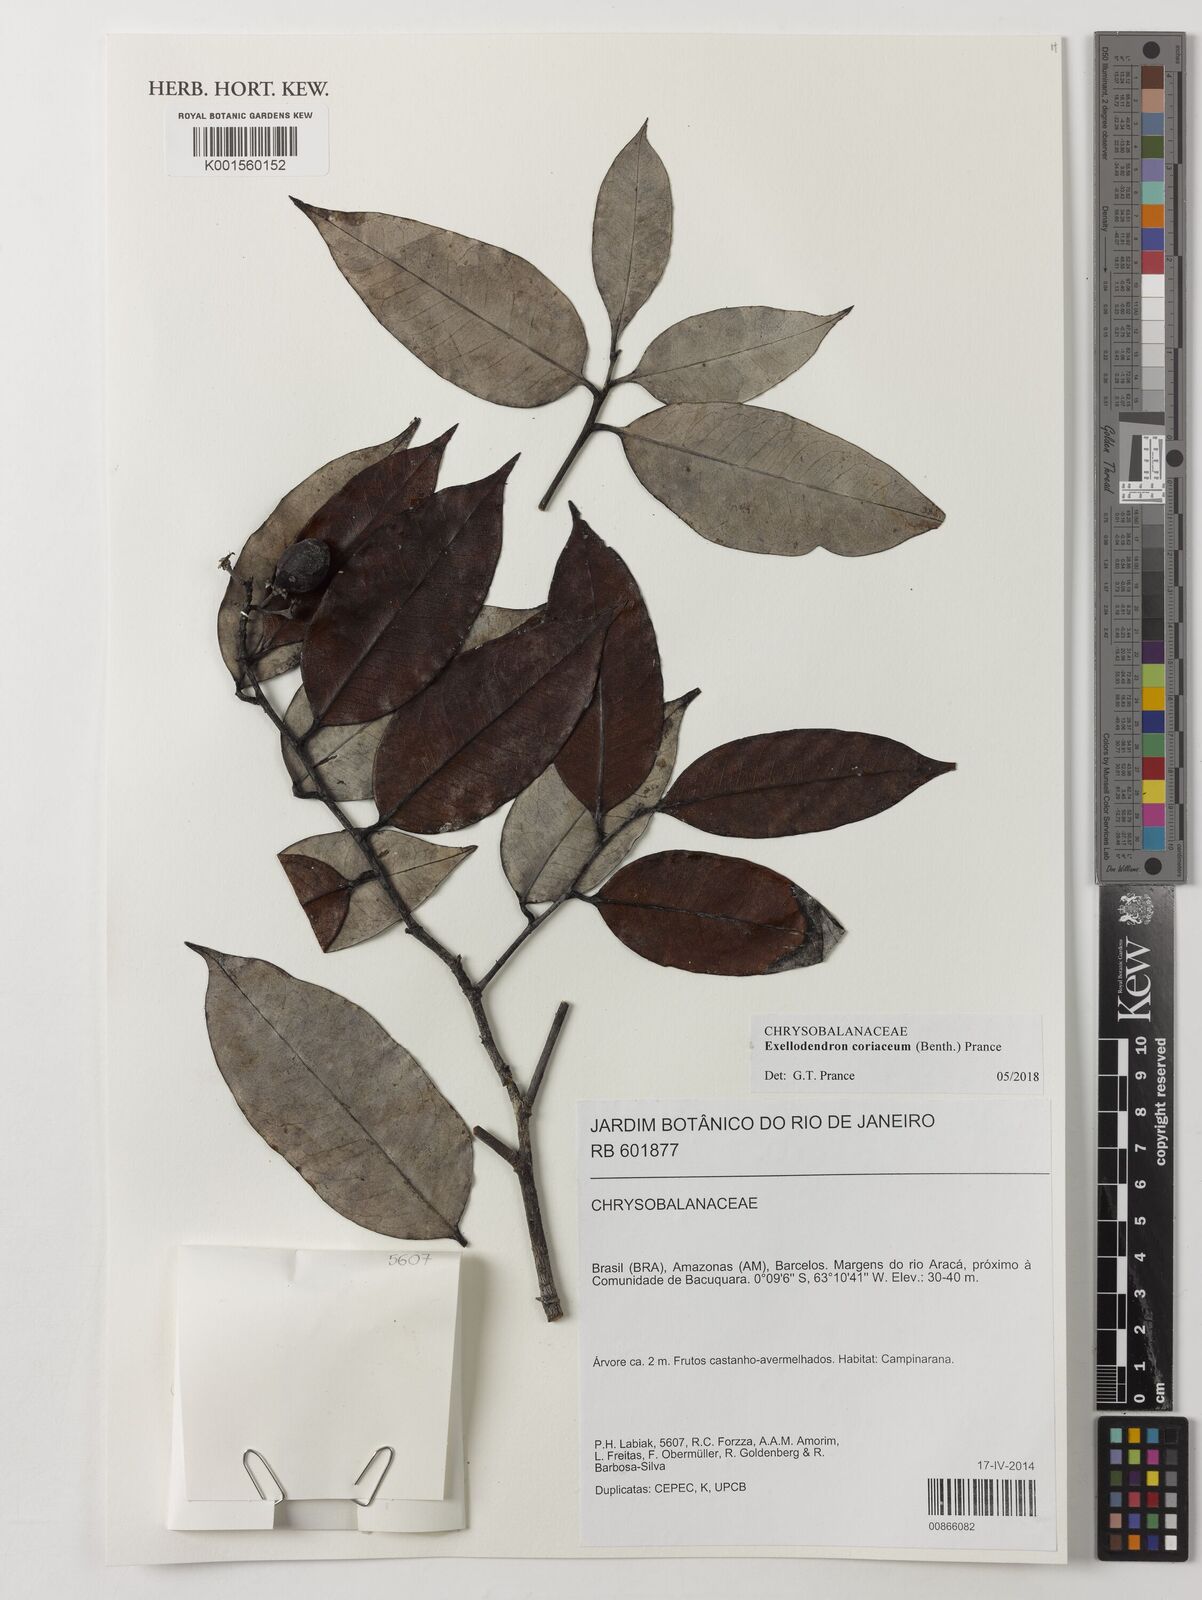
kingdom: Plantae
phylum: Tracheophyta
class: Magnoliopsida
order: Malpighiales
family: Chrysobalanaceae
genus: Exellodendron
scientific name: Exellodendron coriaceum
